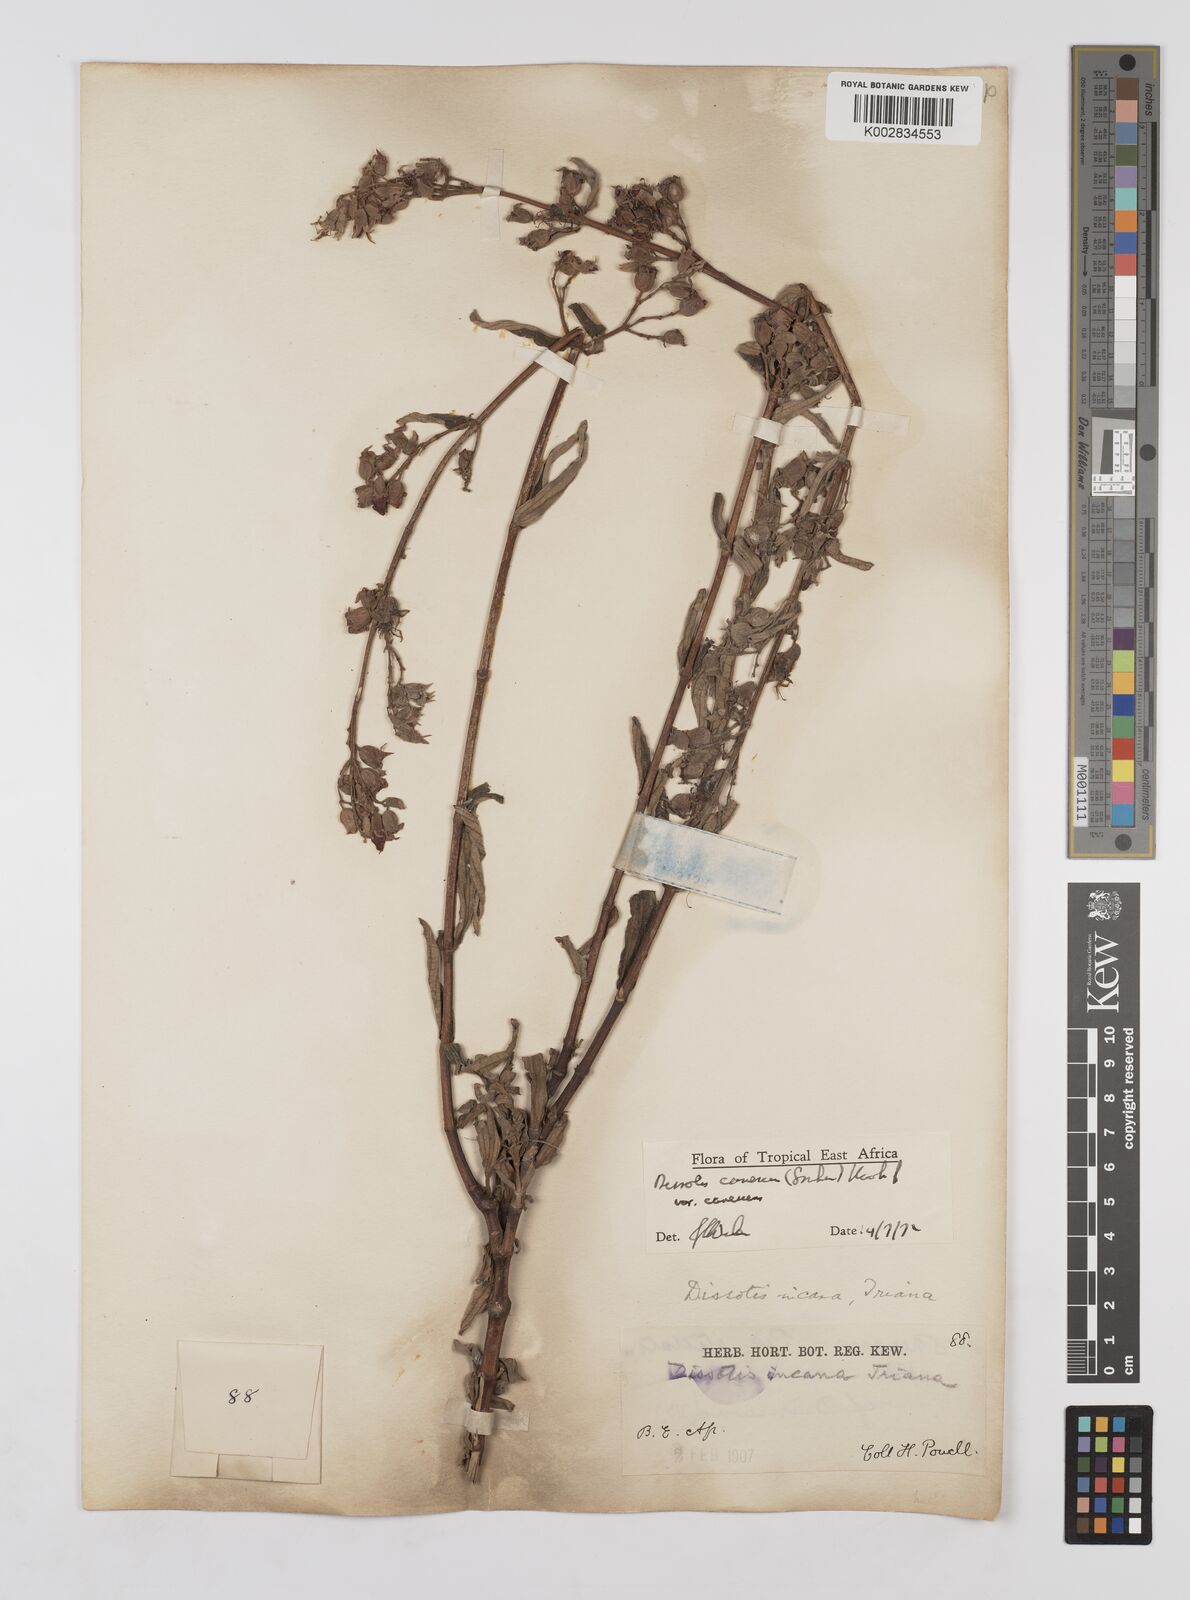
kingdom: Plantae
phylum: Tracheophyta
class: Magnoliopsida
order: Myrtales
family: Melastomataceae
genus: Argyrella
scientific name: Argyrella canescens
